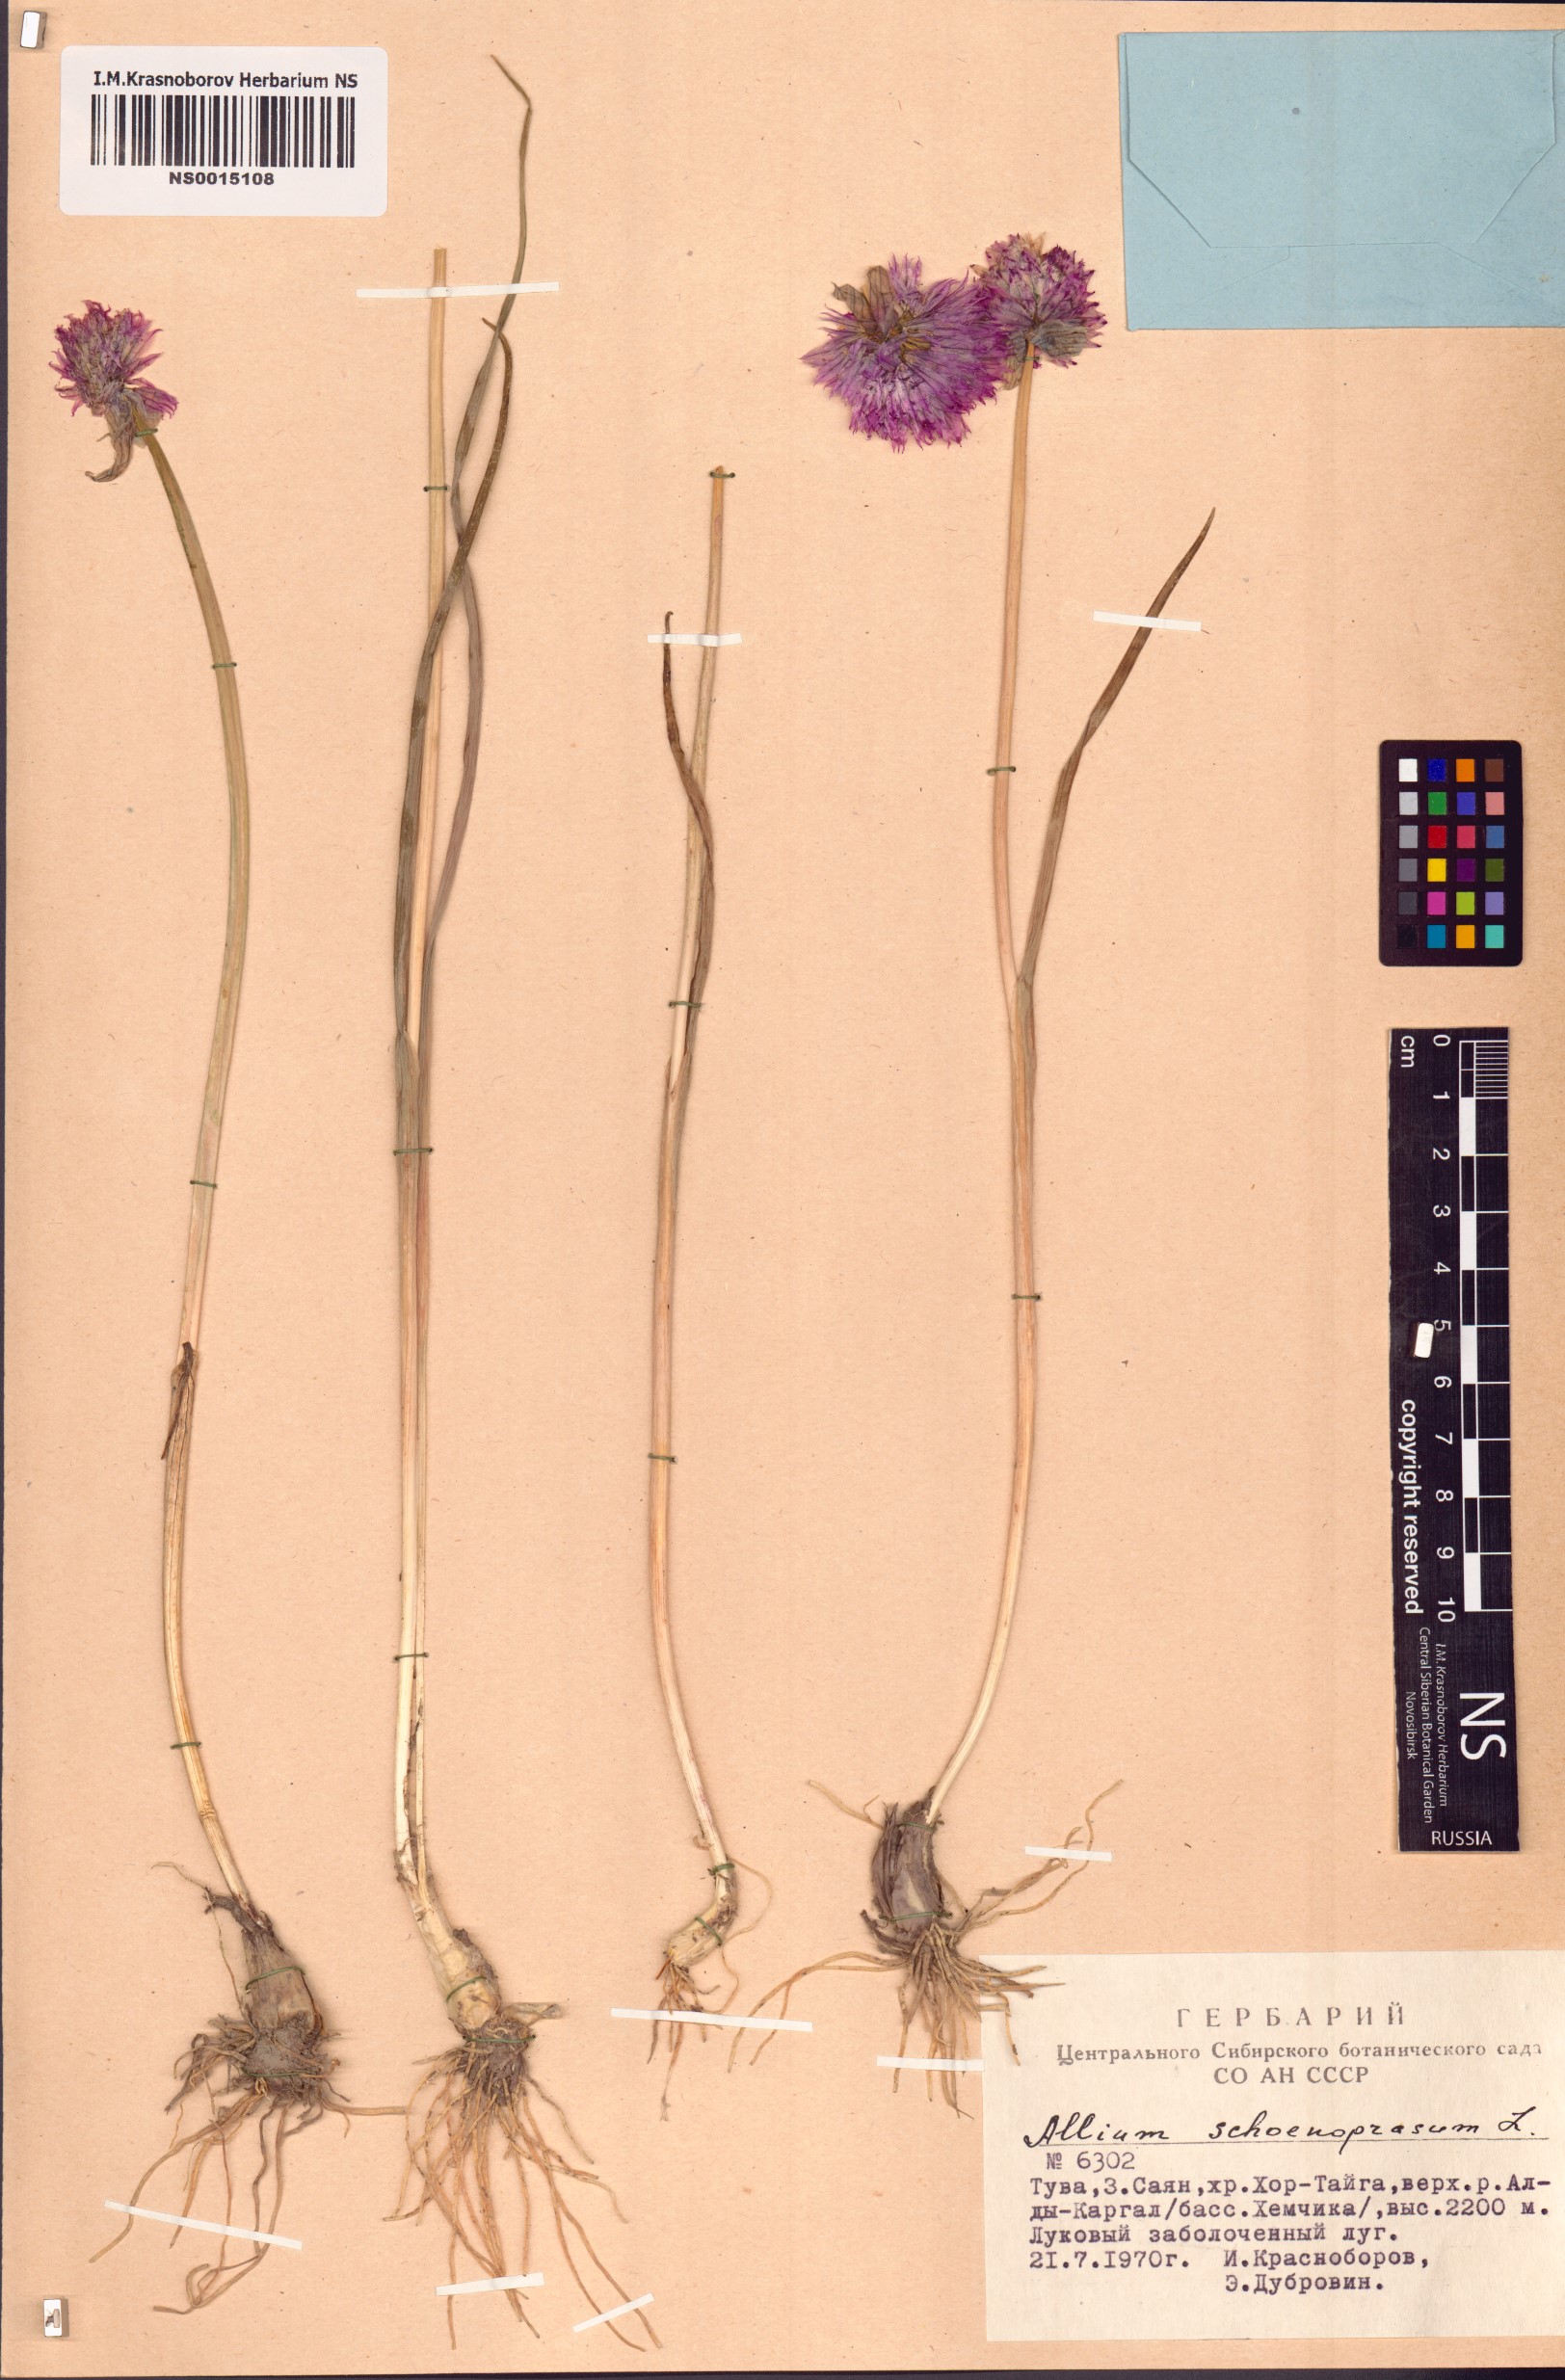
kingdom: Plantae
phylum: Tracheophyta
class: Liliopsida
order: Asparagales
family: Amaryllidaceae
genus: Allium
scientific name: Allium schoenoprasum
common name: Chives
